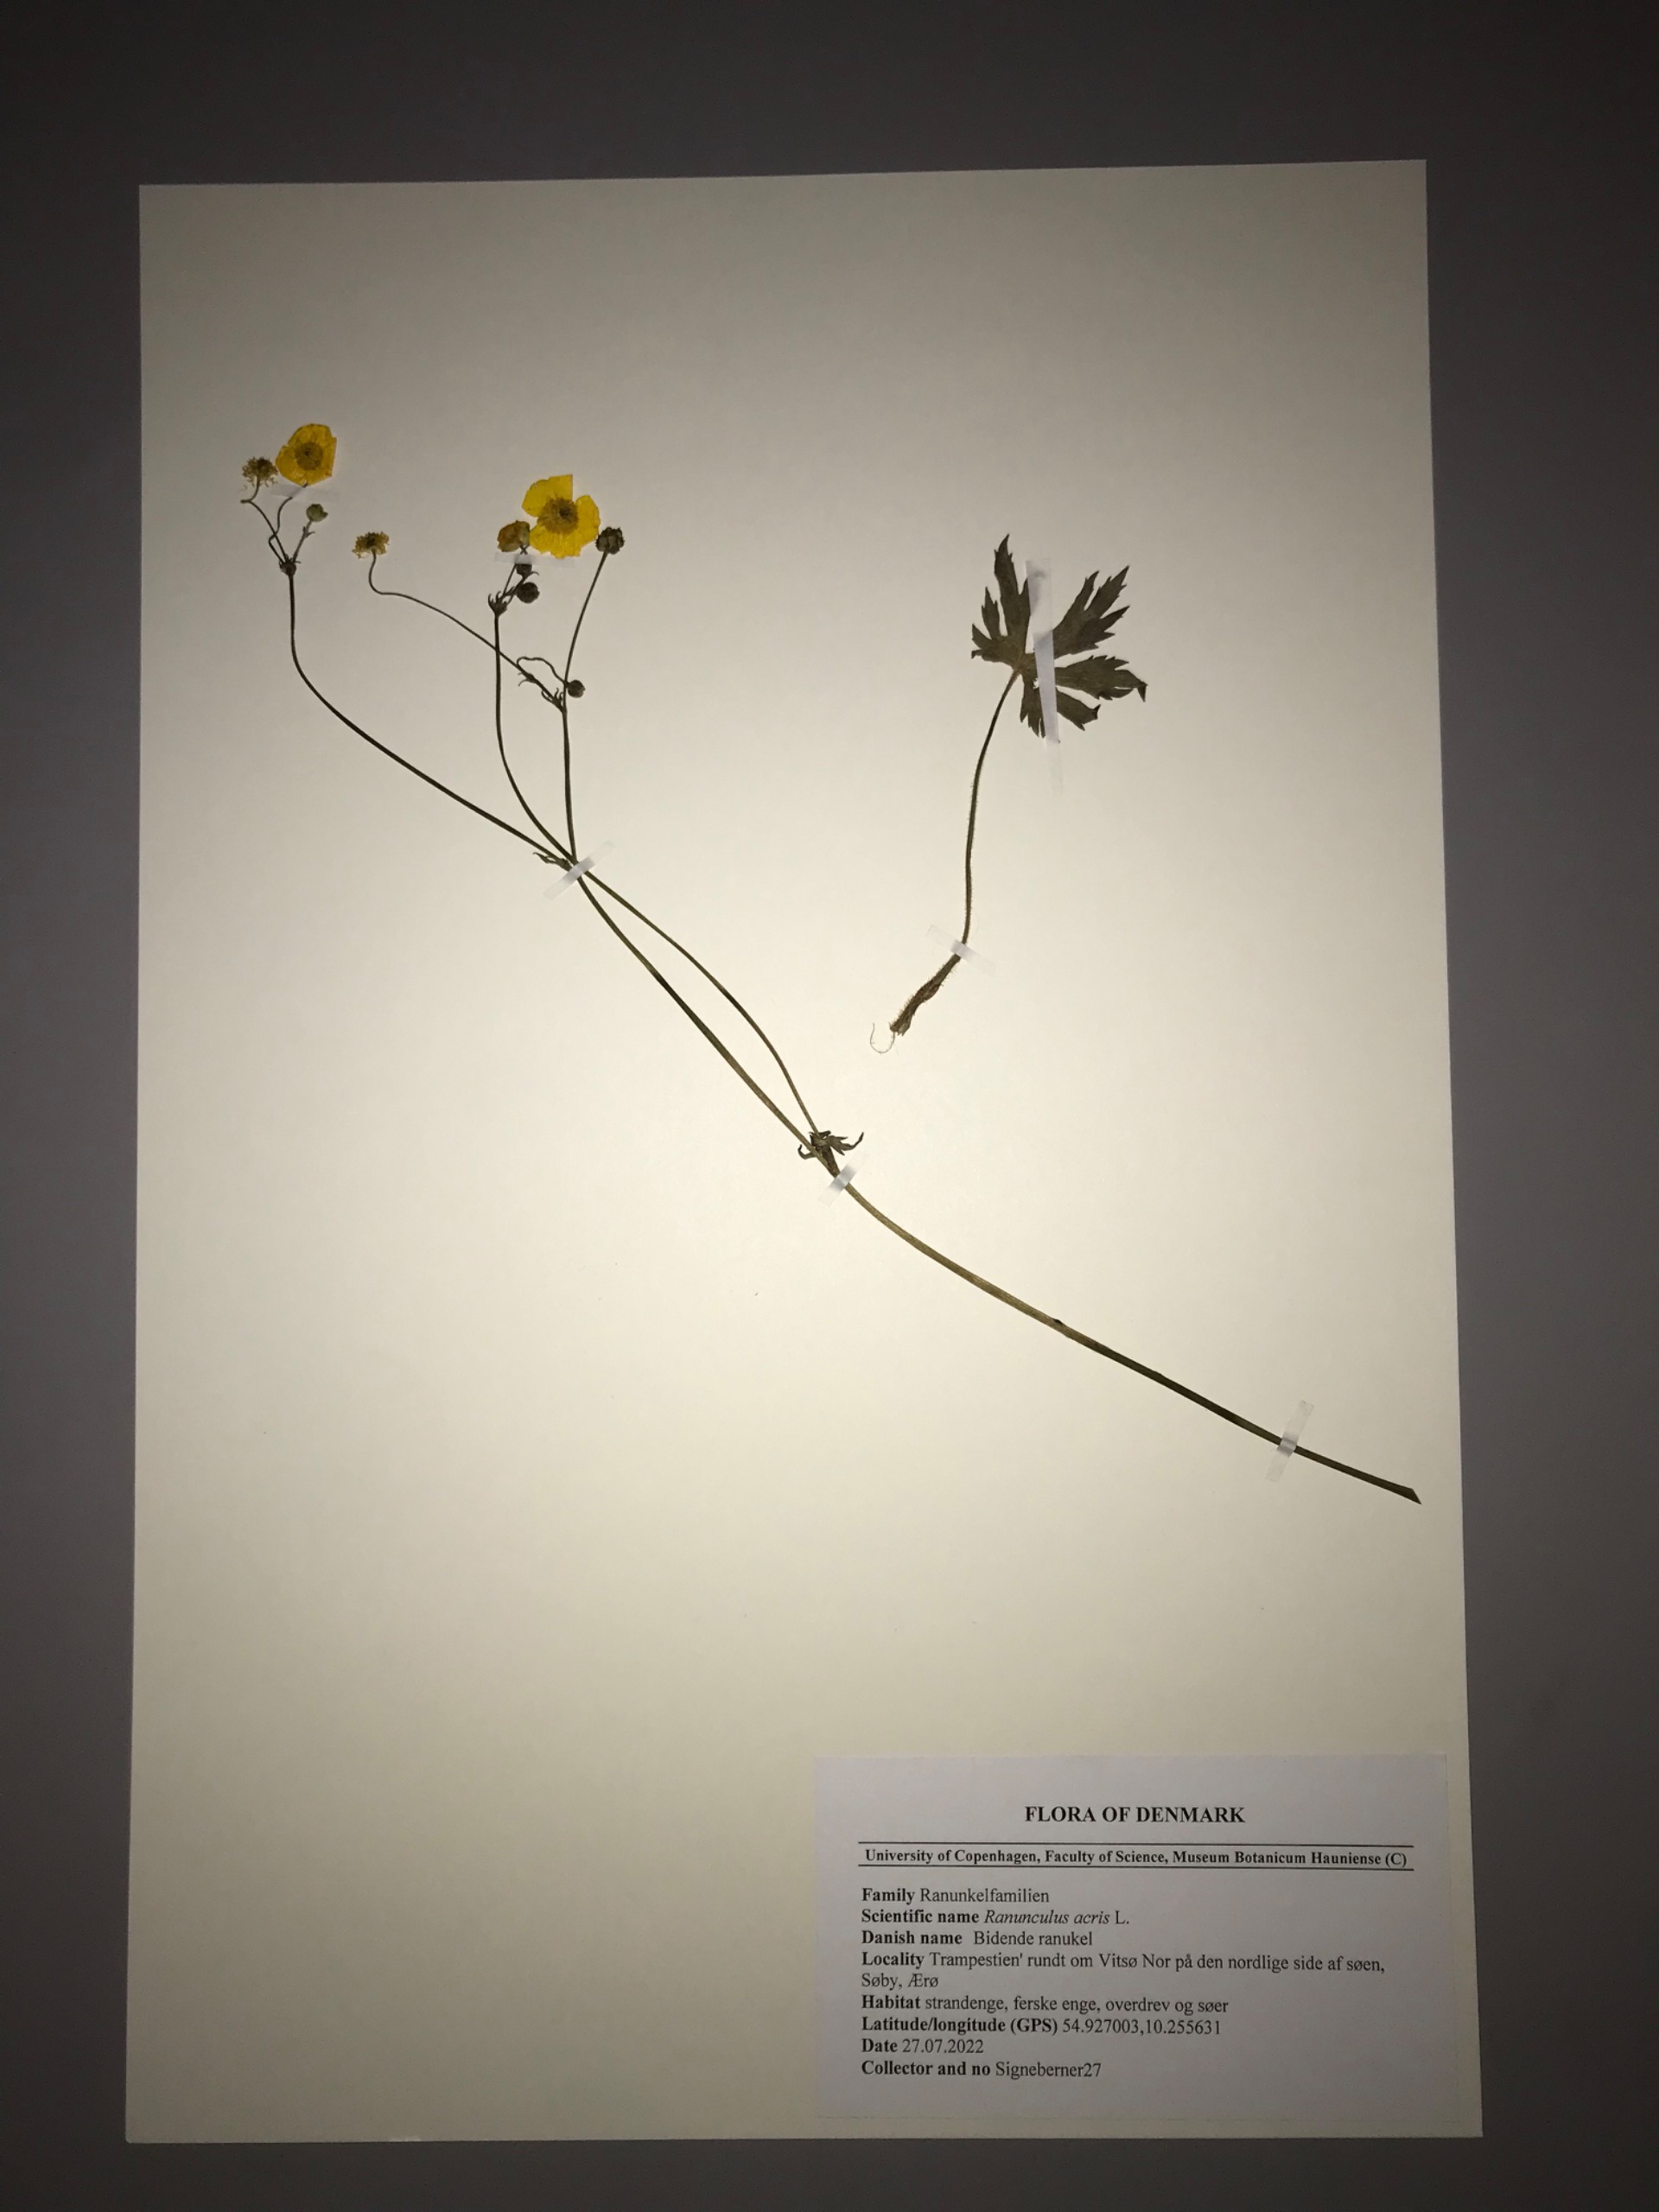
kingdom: Plantae
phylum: Tracheophyta
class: Magnoliopsida
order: Ranunculales
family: Ranunculaceae
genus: Ranunculus
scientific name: Ranunculus acris
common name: Bidende ranunkel
